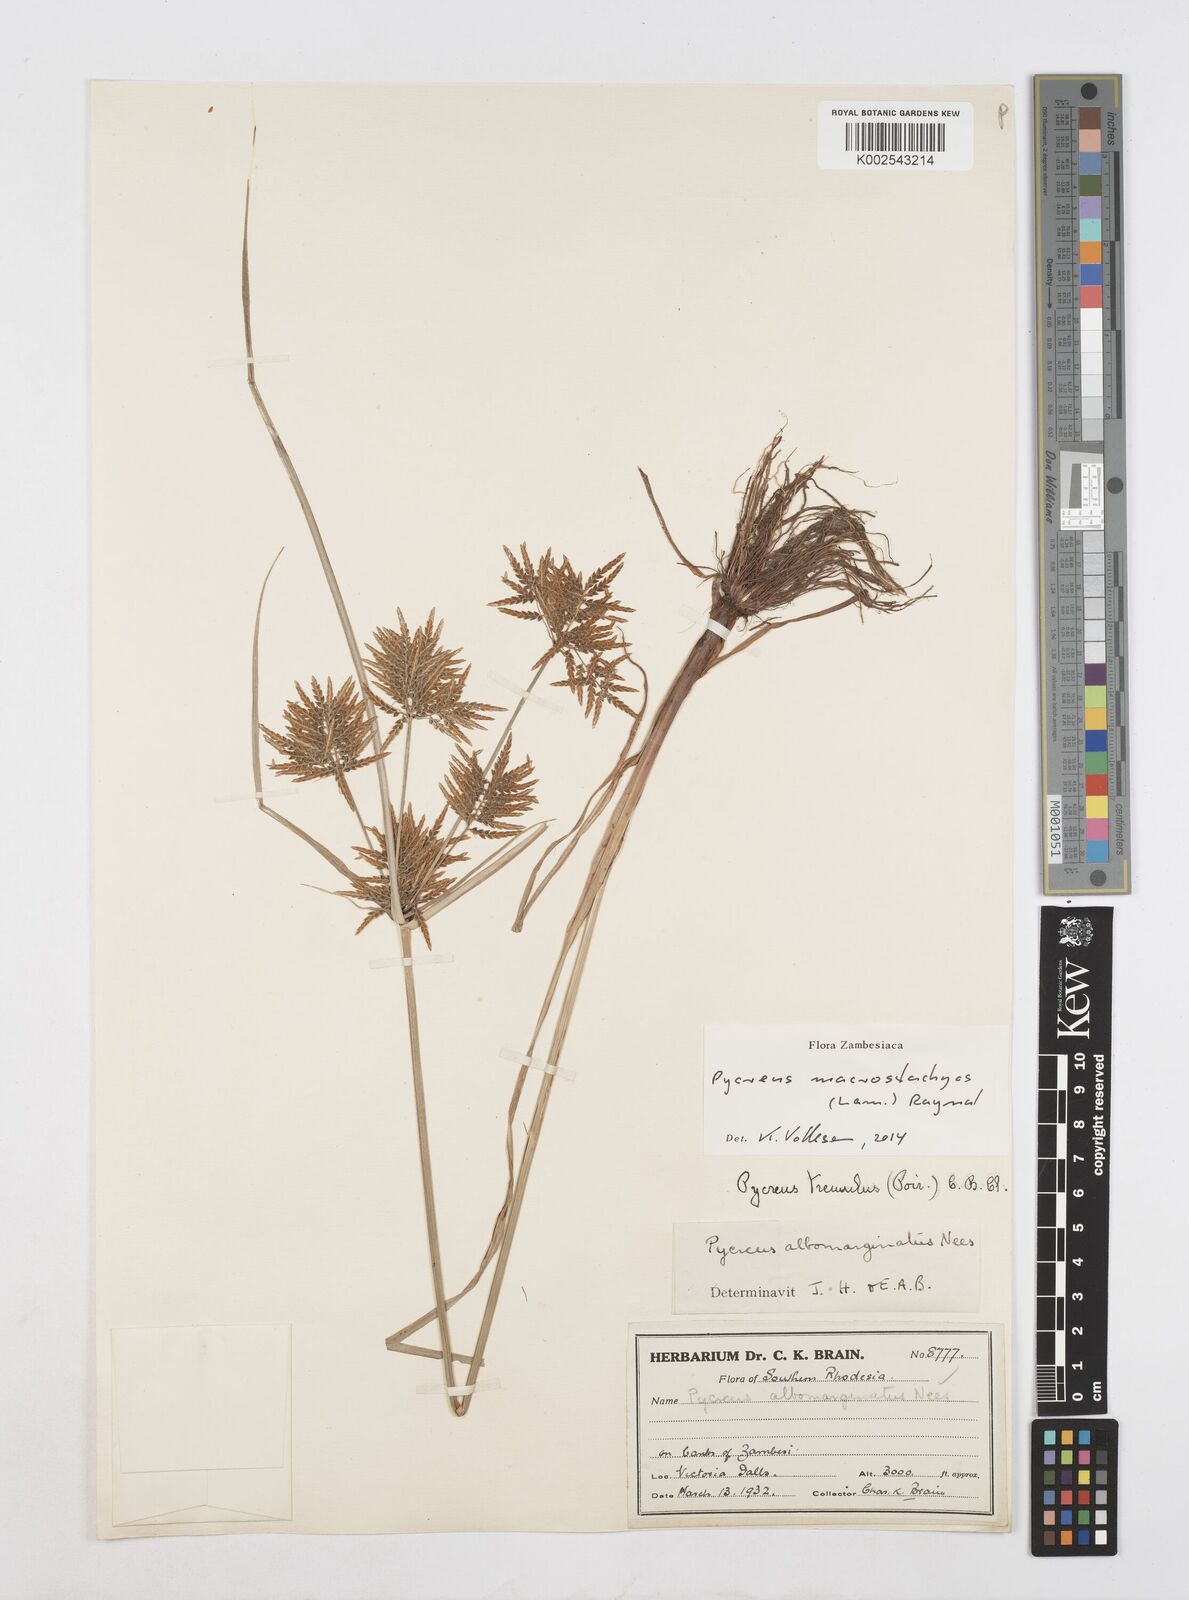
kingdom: Plantae
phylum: Tracheophyta
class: Liliopsida
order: Poales
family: Cyperaceae
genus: Cyperus
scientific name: Cyperus macrostachyos
